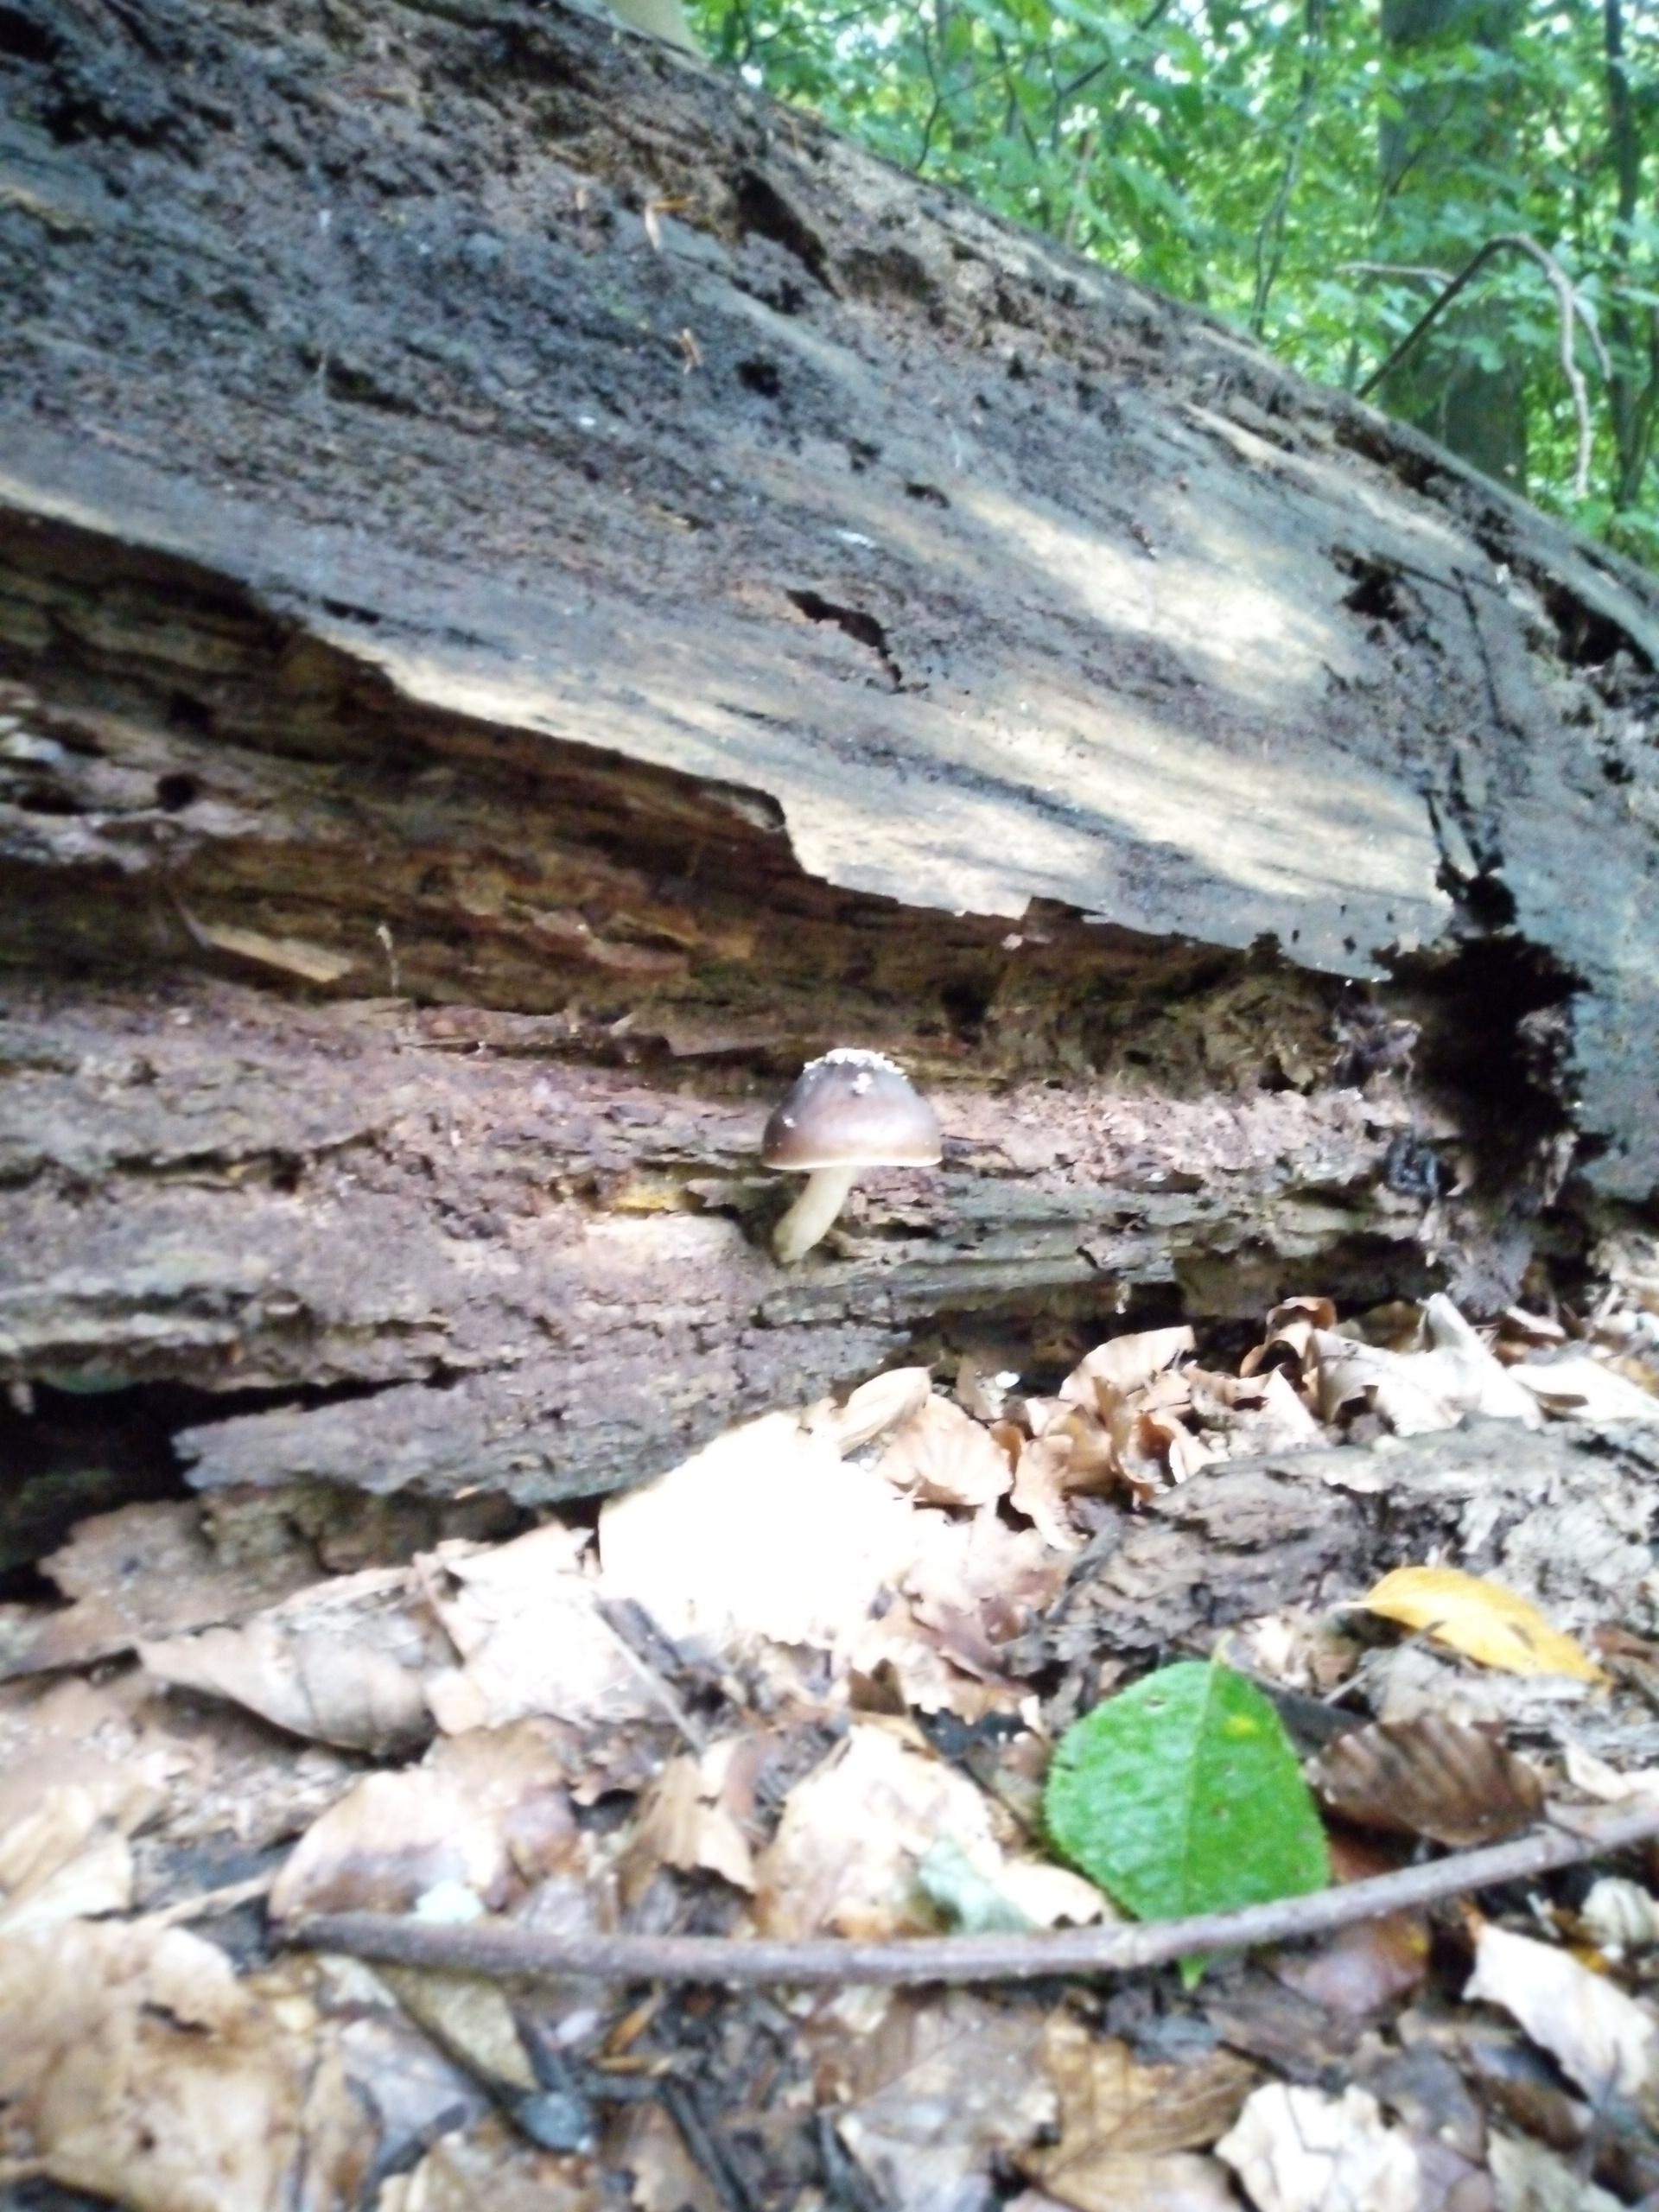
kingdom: Fungi
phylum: Basidiomycota
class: Agaricomycetes
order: Agaricales
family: Pluteaceae
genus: Pluteus
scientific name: Pluteus cervinus
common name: sodfarvet skærmhat
